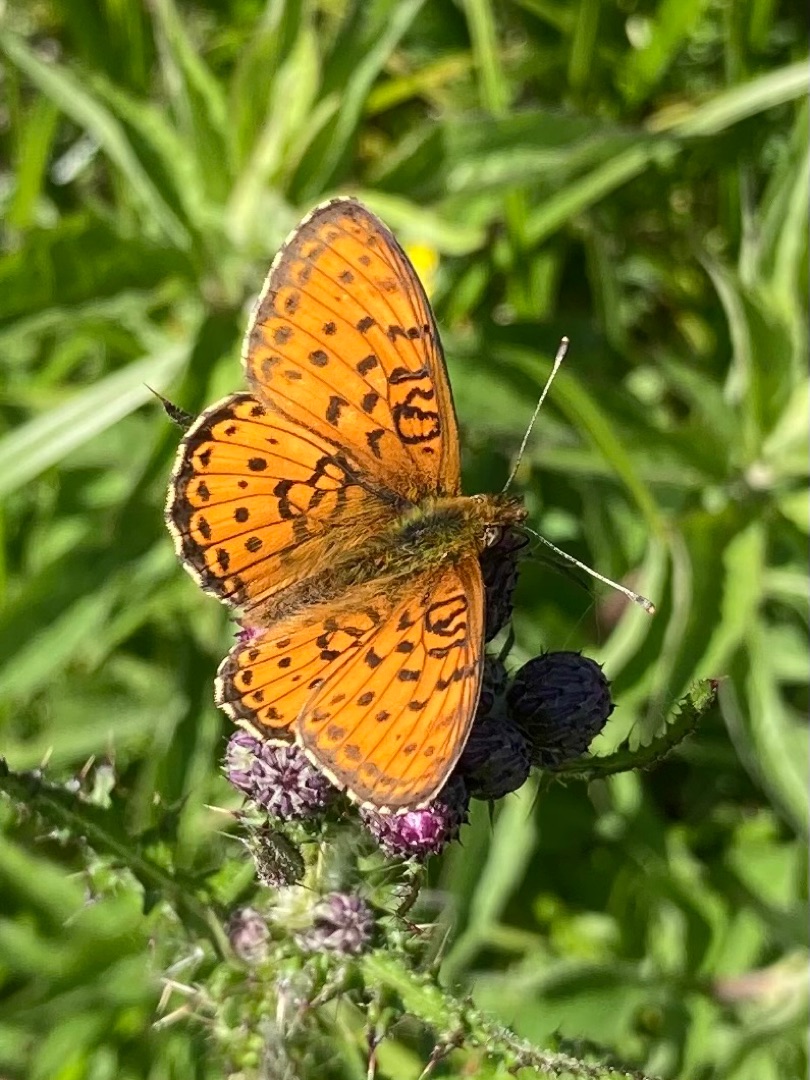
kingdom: Animalia
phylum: Arthropoda
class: Insecta
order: Lepidoptera
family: Nymphalidae
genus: Brenthis
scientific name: Brenthis ino
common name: Engperlemorsommerfugl
